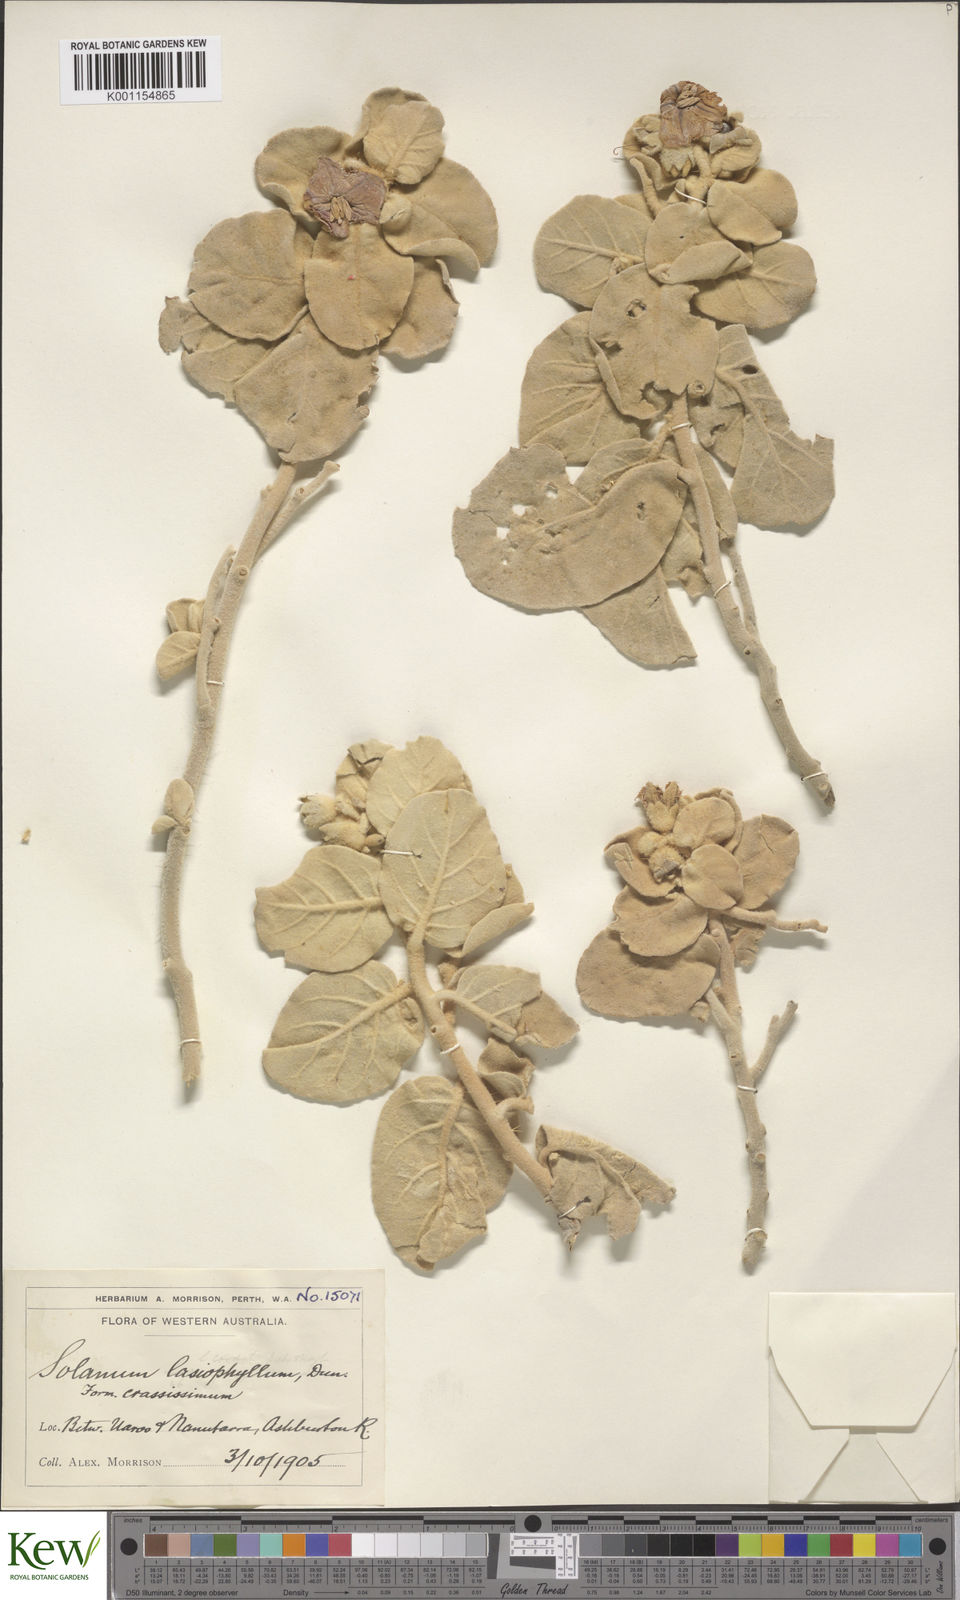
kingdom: Plantae
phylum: Tracheophyta
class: Magnoliopsida
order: Solanales
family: Solanaceae
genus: Solanum
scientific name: Solanum lasiophyllum
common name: Flannelbush
